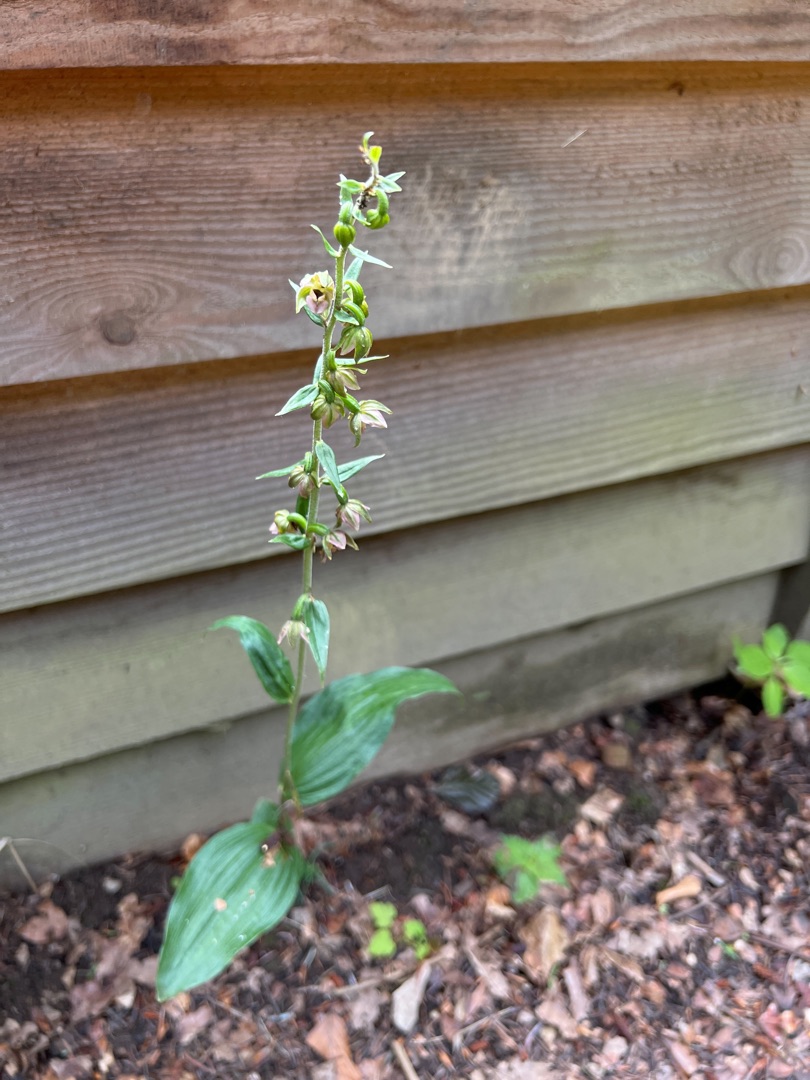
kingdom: Plantae
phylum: Tracheophyta
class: Liliopsida
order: Asparagales
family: Orchidaceae
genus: Epipactis
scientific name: Epipactis helleborine
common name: Skov-hullæbe
